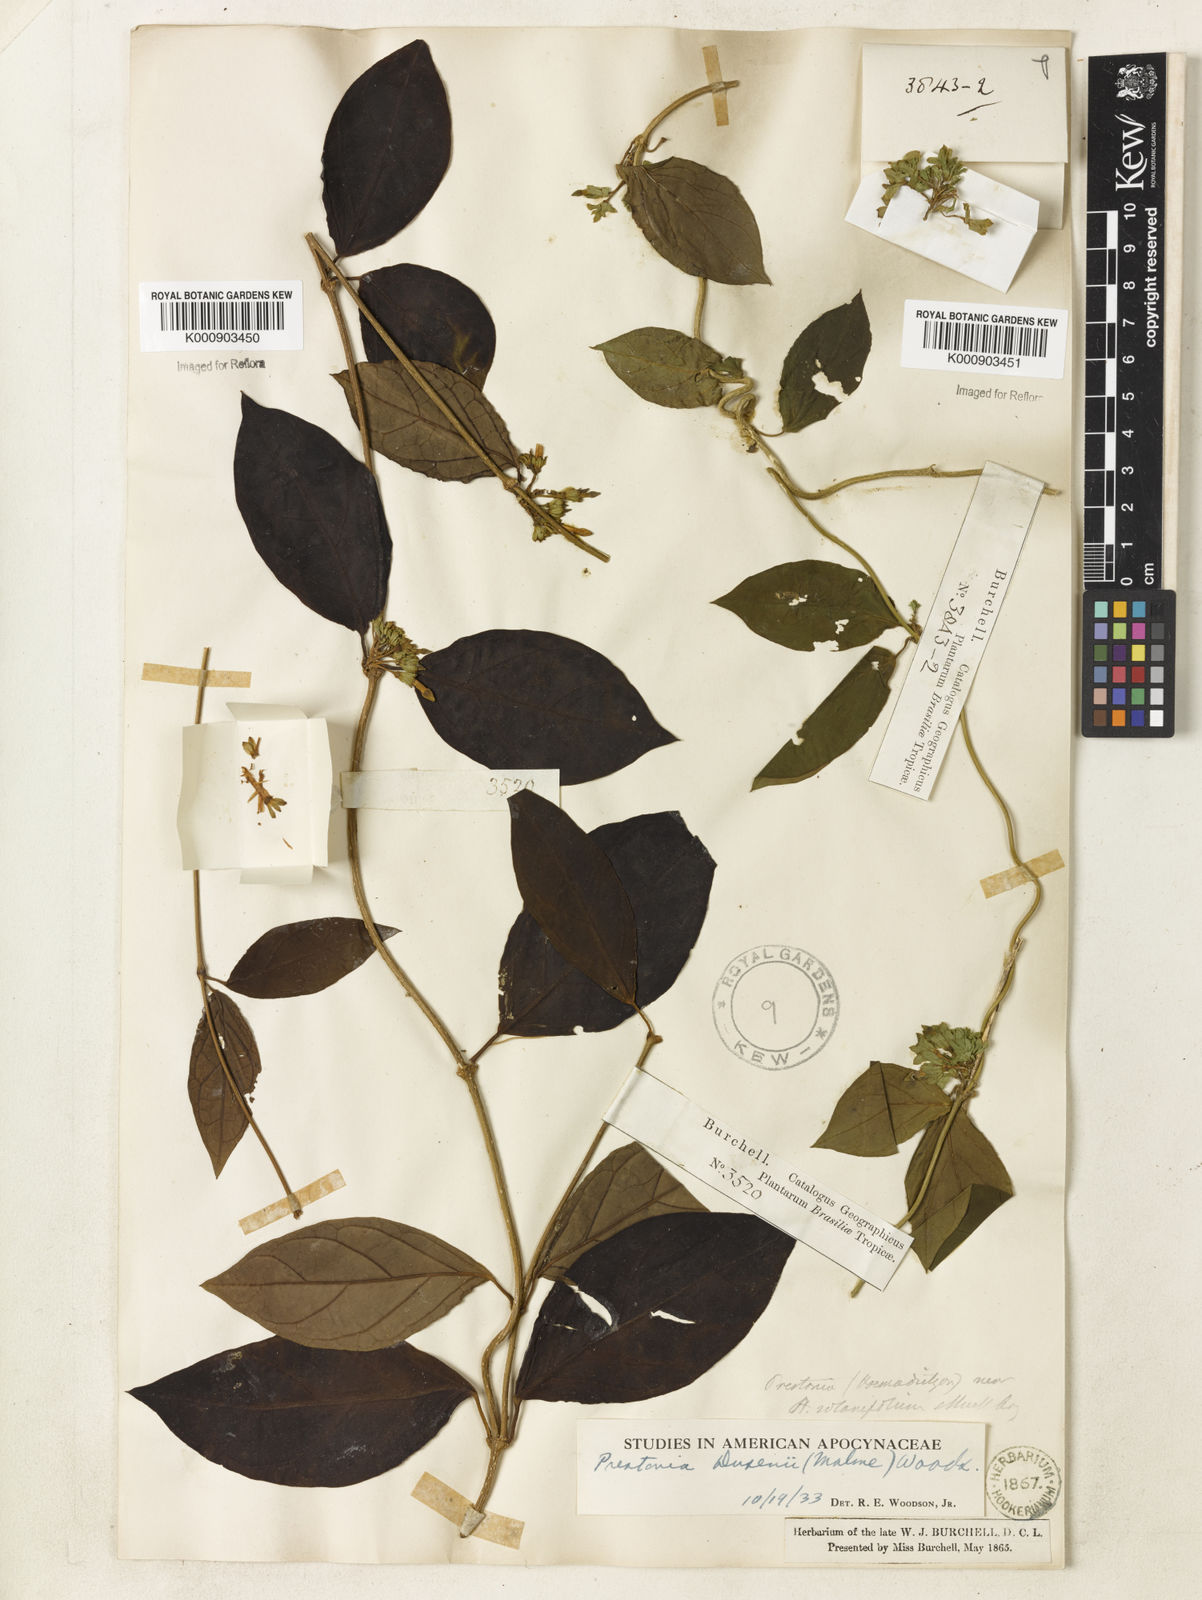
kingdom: Plantae
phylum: Tracheophyta
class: Magnoliopsida
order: Gentianales
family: Apocynaceae
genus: Prestonia
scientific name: Prestonia dusenii
